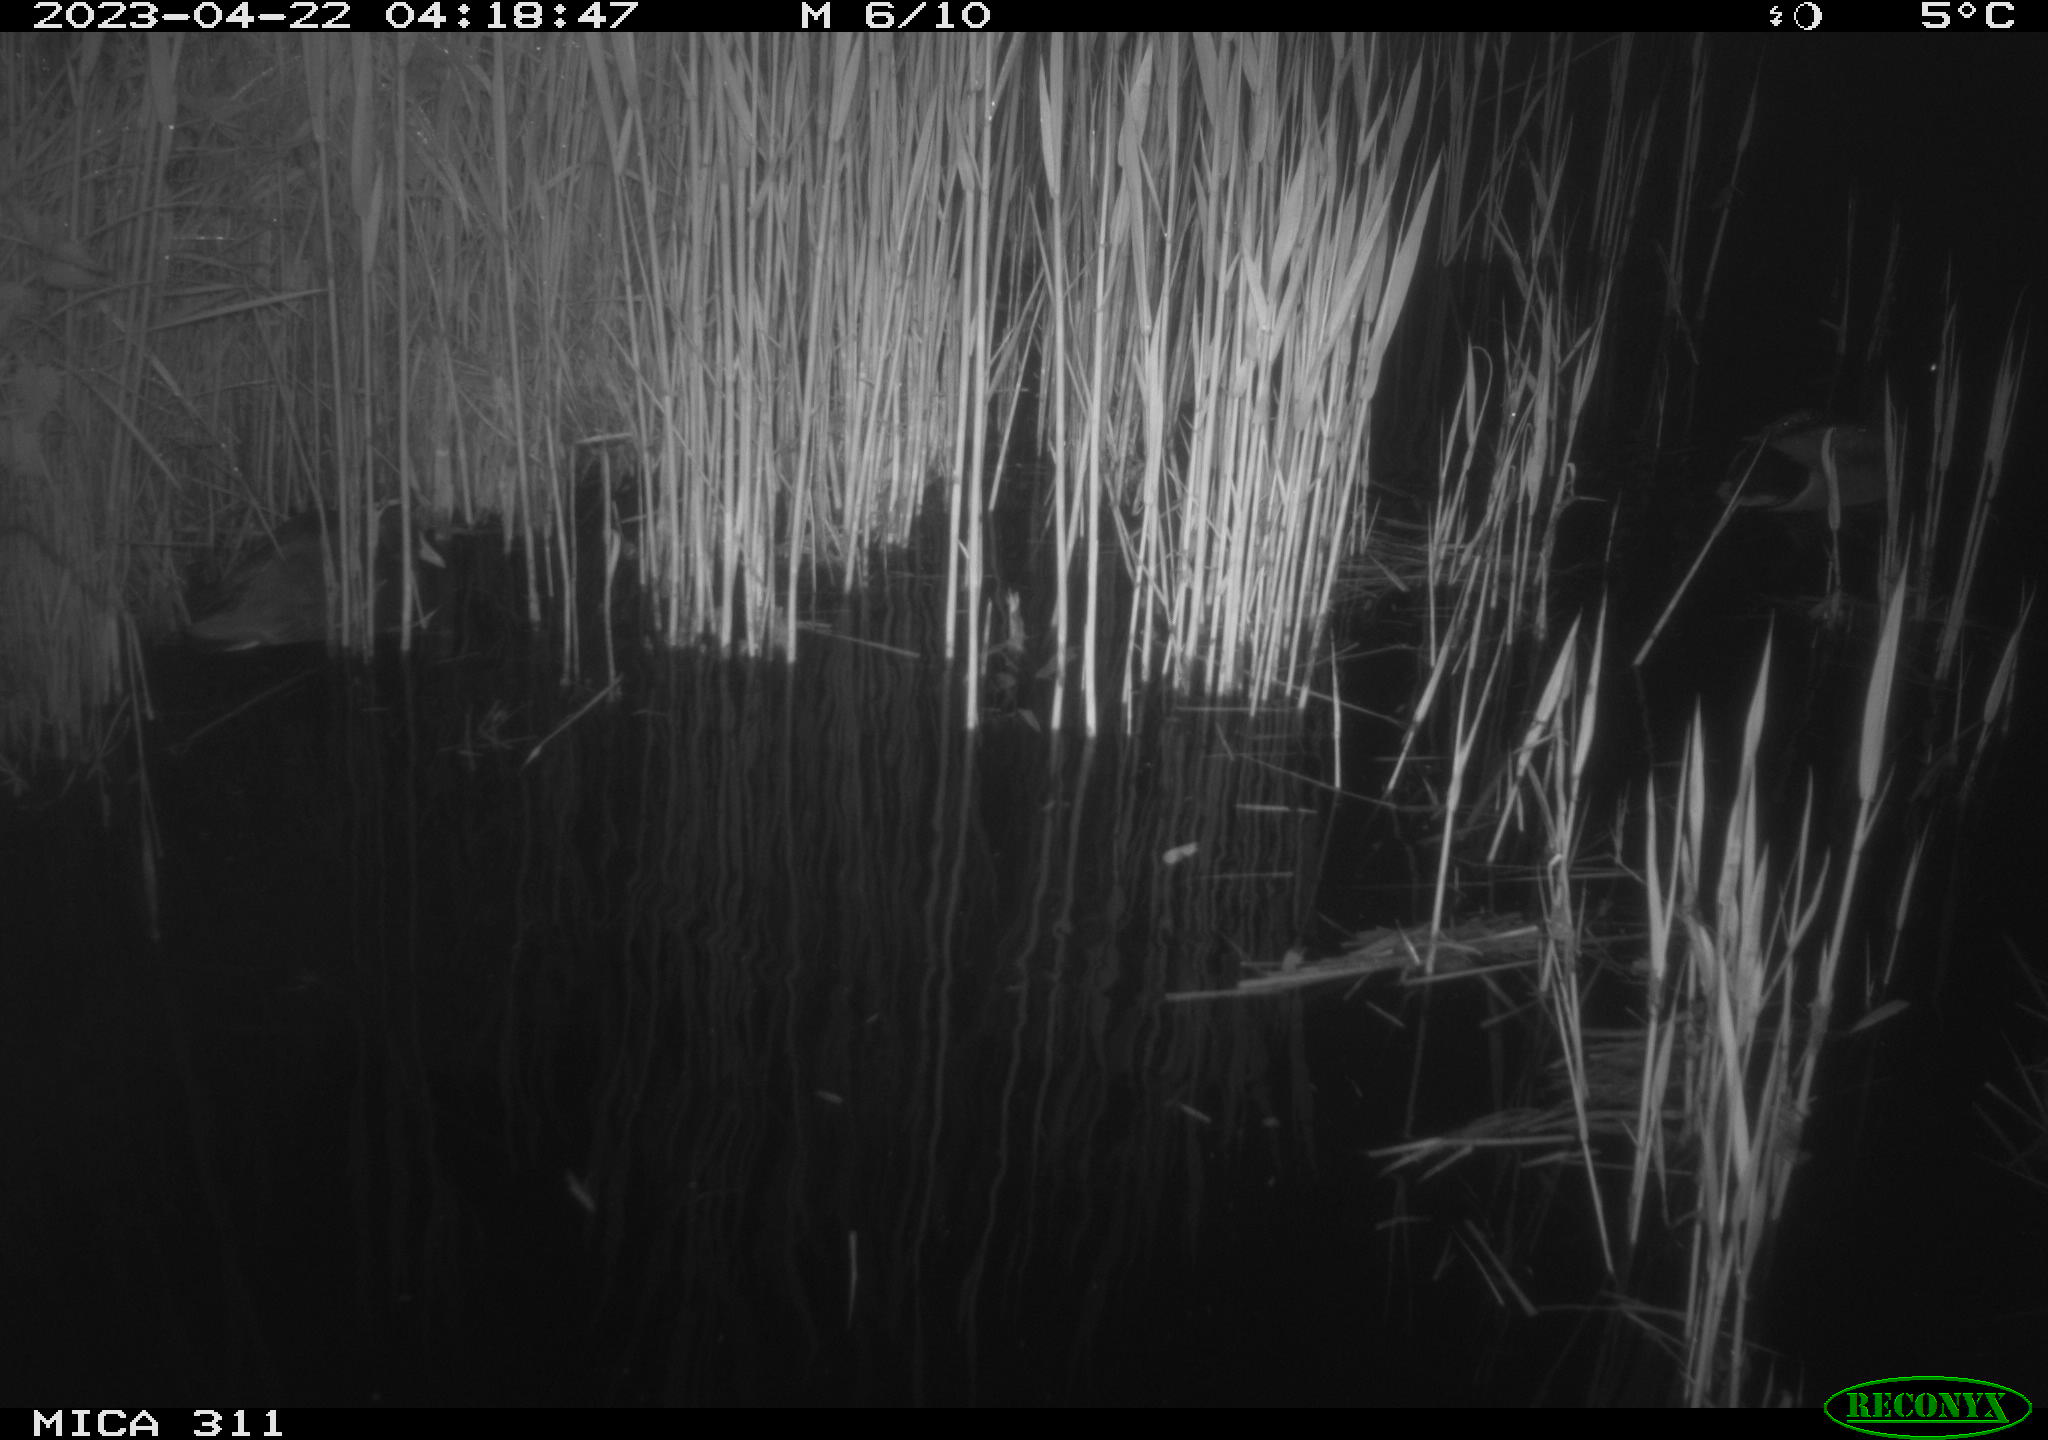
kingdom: Animalia
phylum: Chordata
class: Aves
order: Anseriformes
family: Anatidae
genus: Anas
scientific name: Anas
